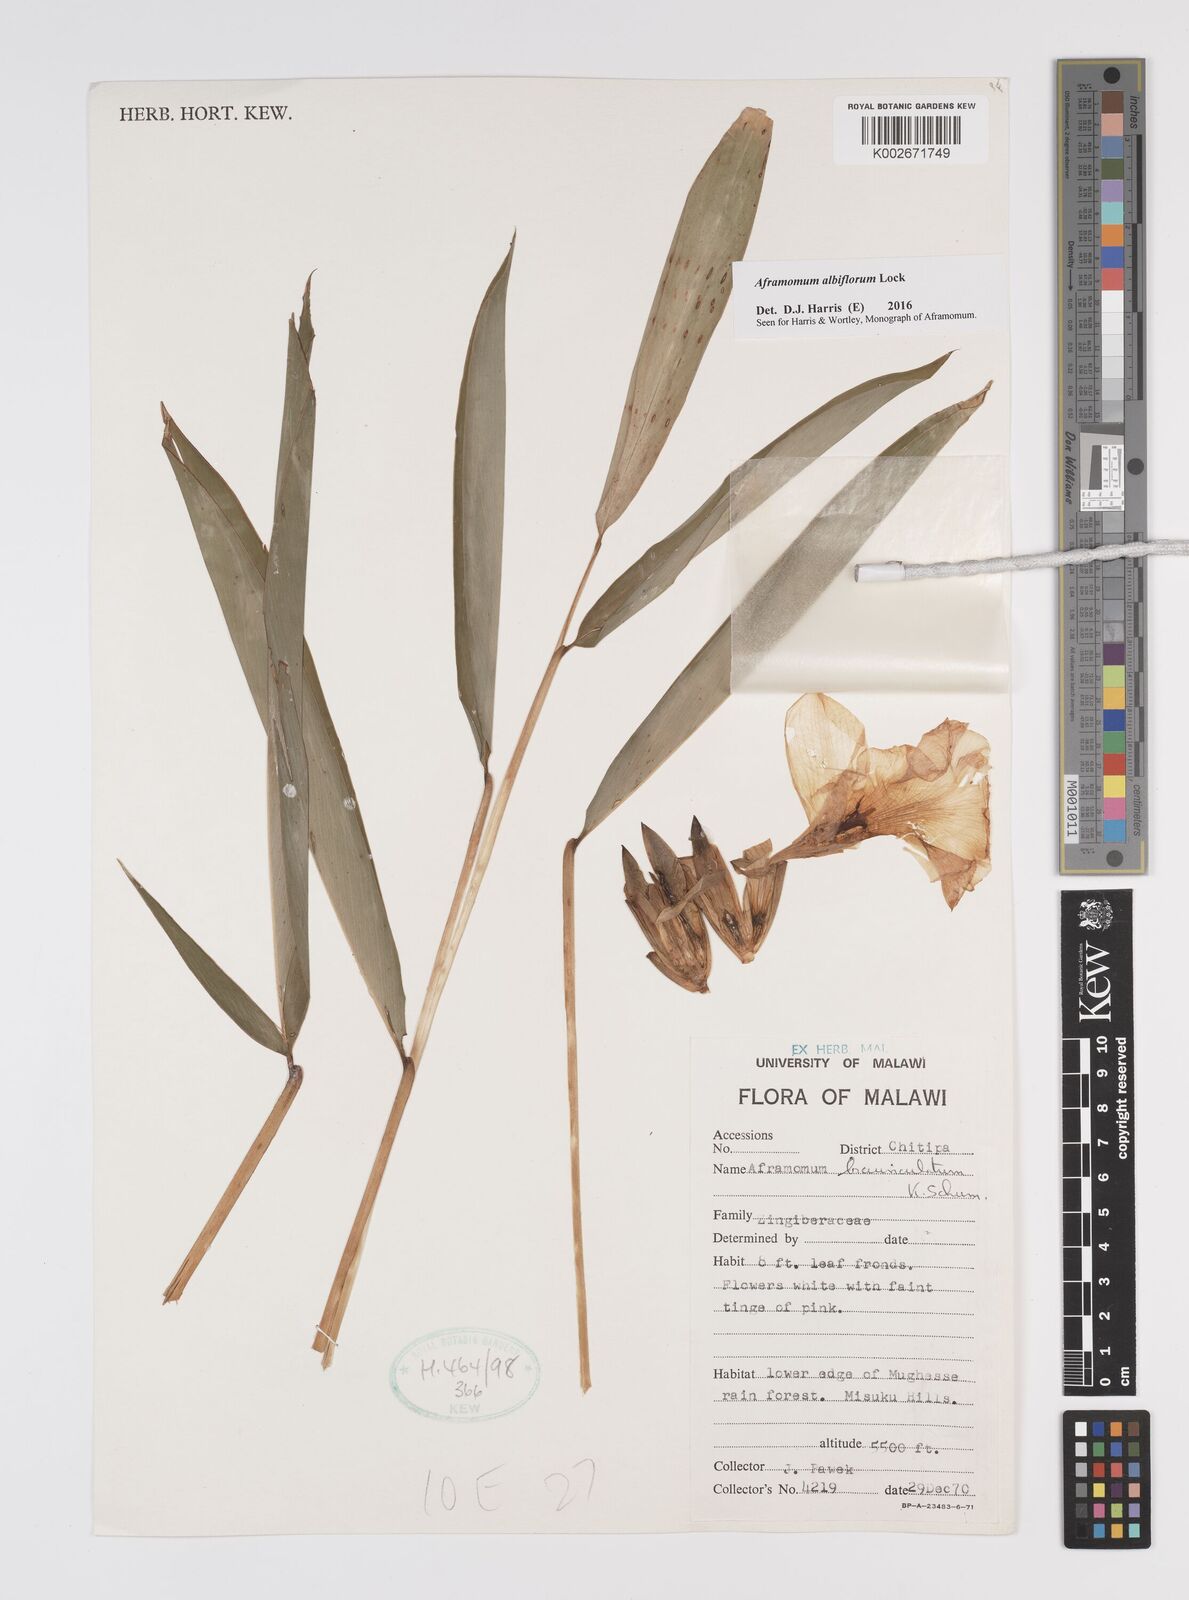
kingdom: Plantae
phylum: Tracheophyta
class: Liliopsida
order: Zingiberales
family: Zingiberaceae
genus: Aframomum
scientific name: Aframomum albiflorum
